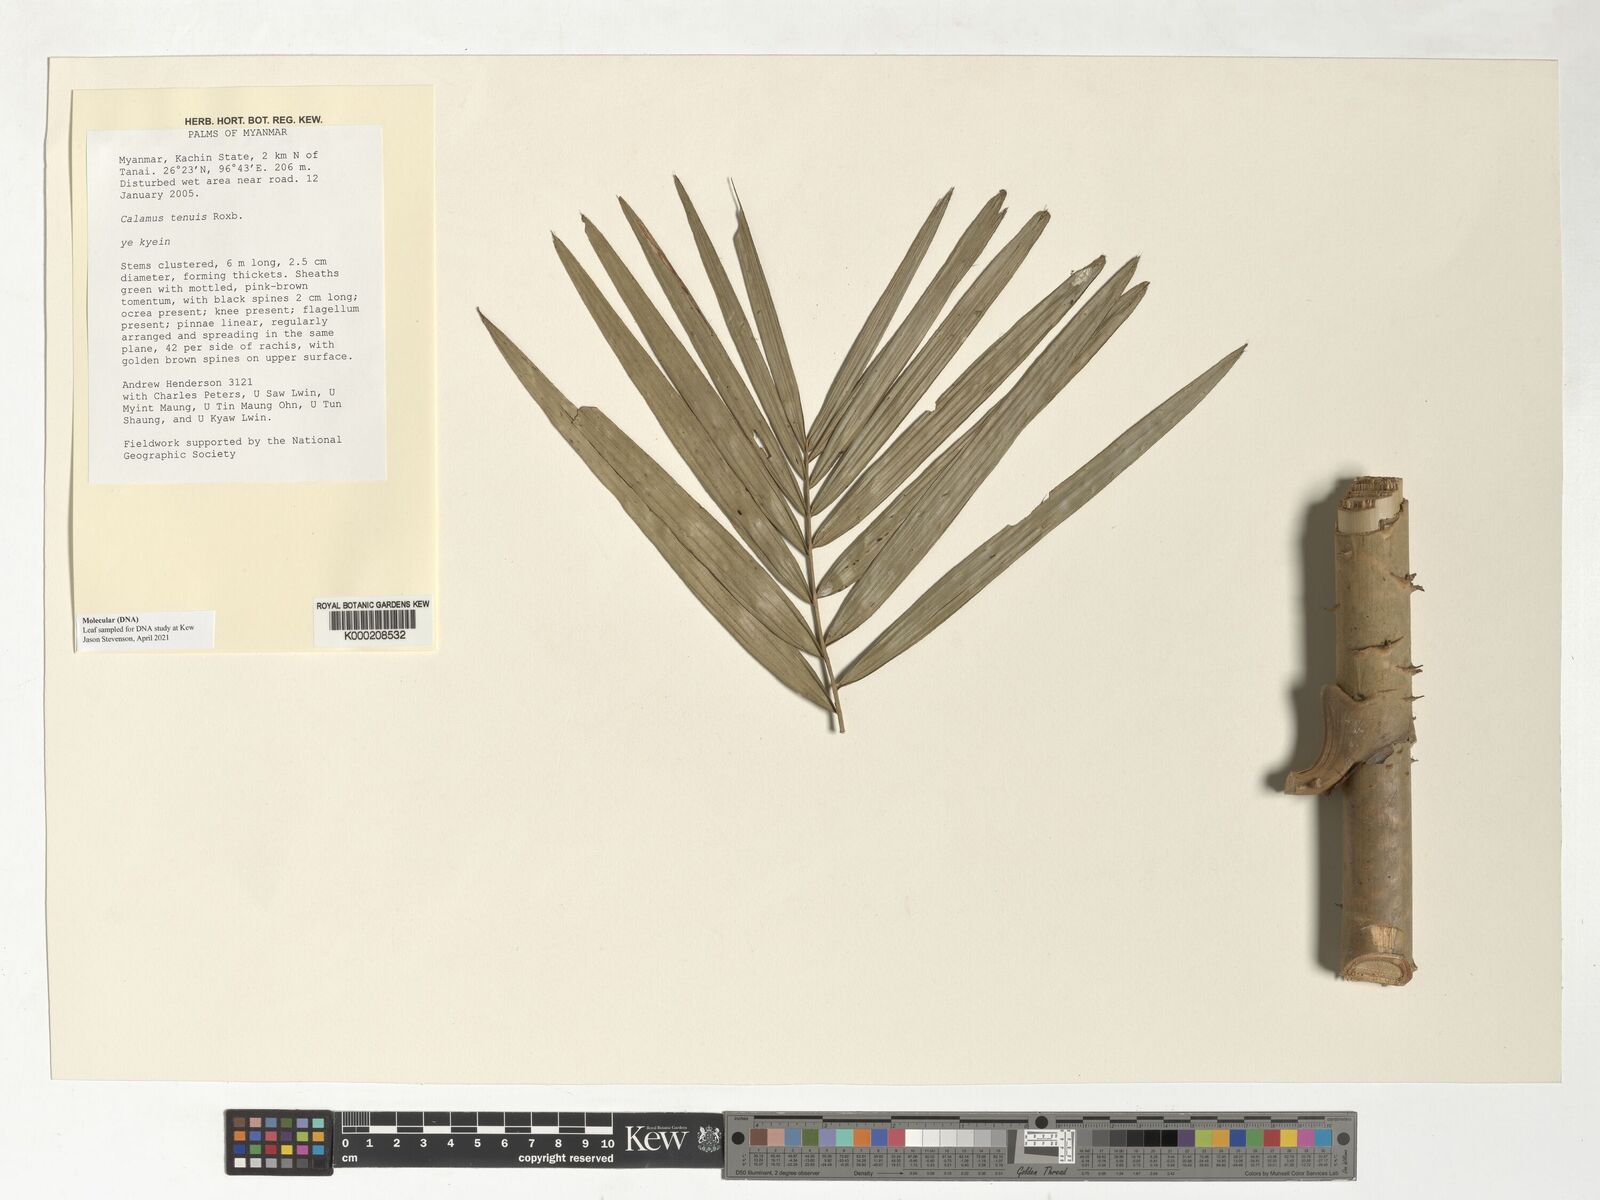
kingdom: Plantae
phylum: Tracheophyta
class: Liliopsida
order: Arecales
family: Arecaceae
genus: Calamus
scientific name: Calamus tenuis
